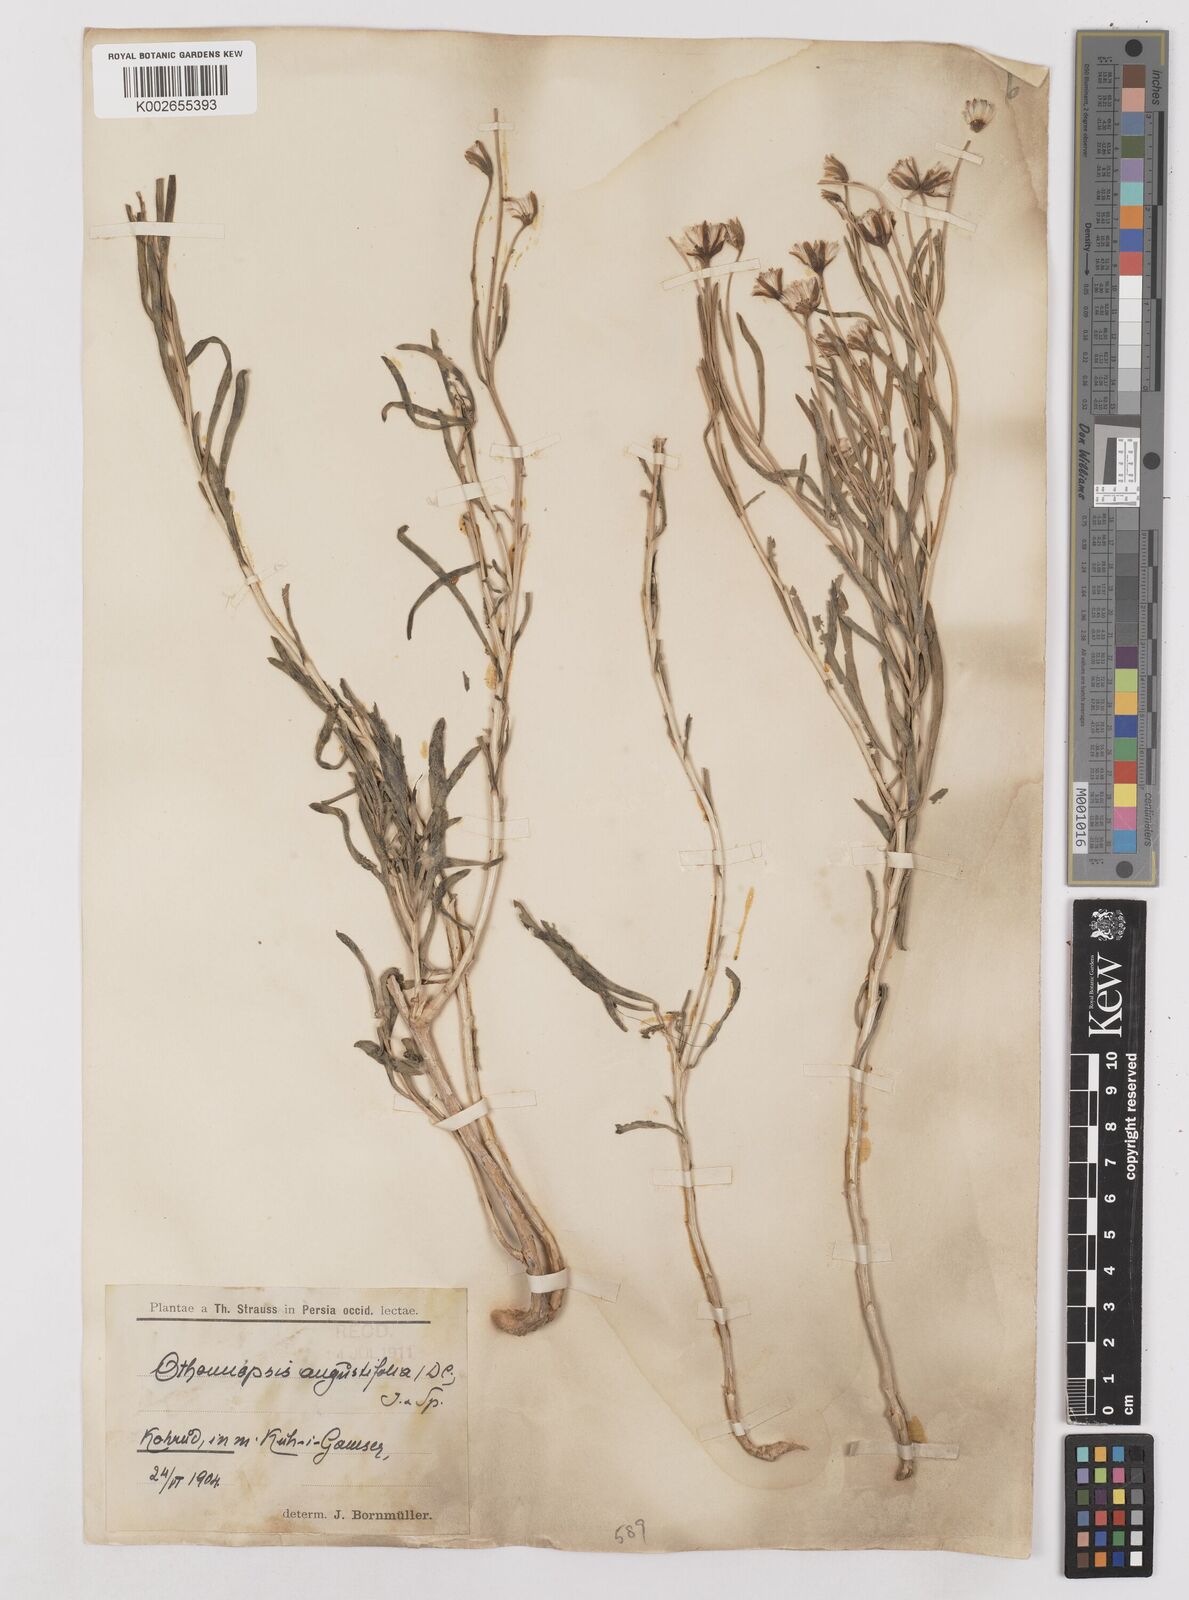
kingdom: Plantae
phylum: Tracheophyta
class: Magnoliopsida
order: Asterales
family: Asteraceae
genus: Hertia
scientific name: Hertia angustifolia
